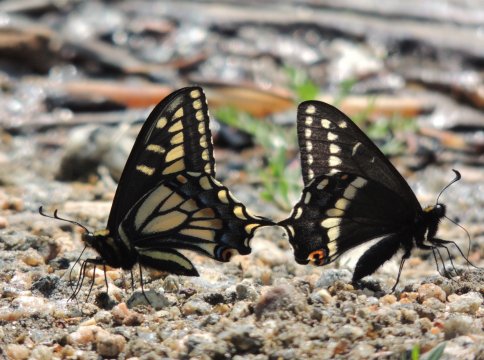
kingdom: Animalia
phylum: Arthropoda
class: Insecta
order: Lepidoptera
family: Papilionidae
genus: Papilio
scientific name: Papilio zelicaon
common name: Anise Swallowtail
